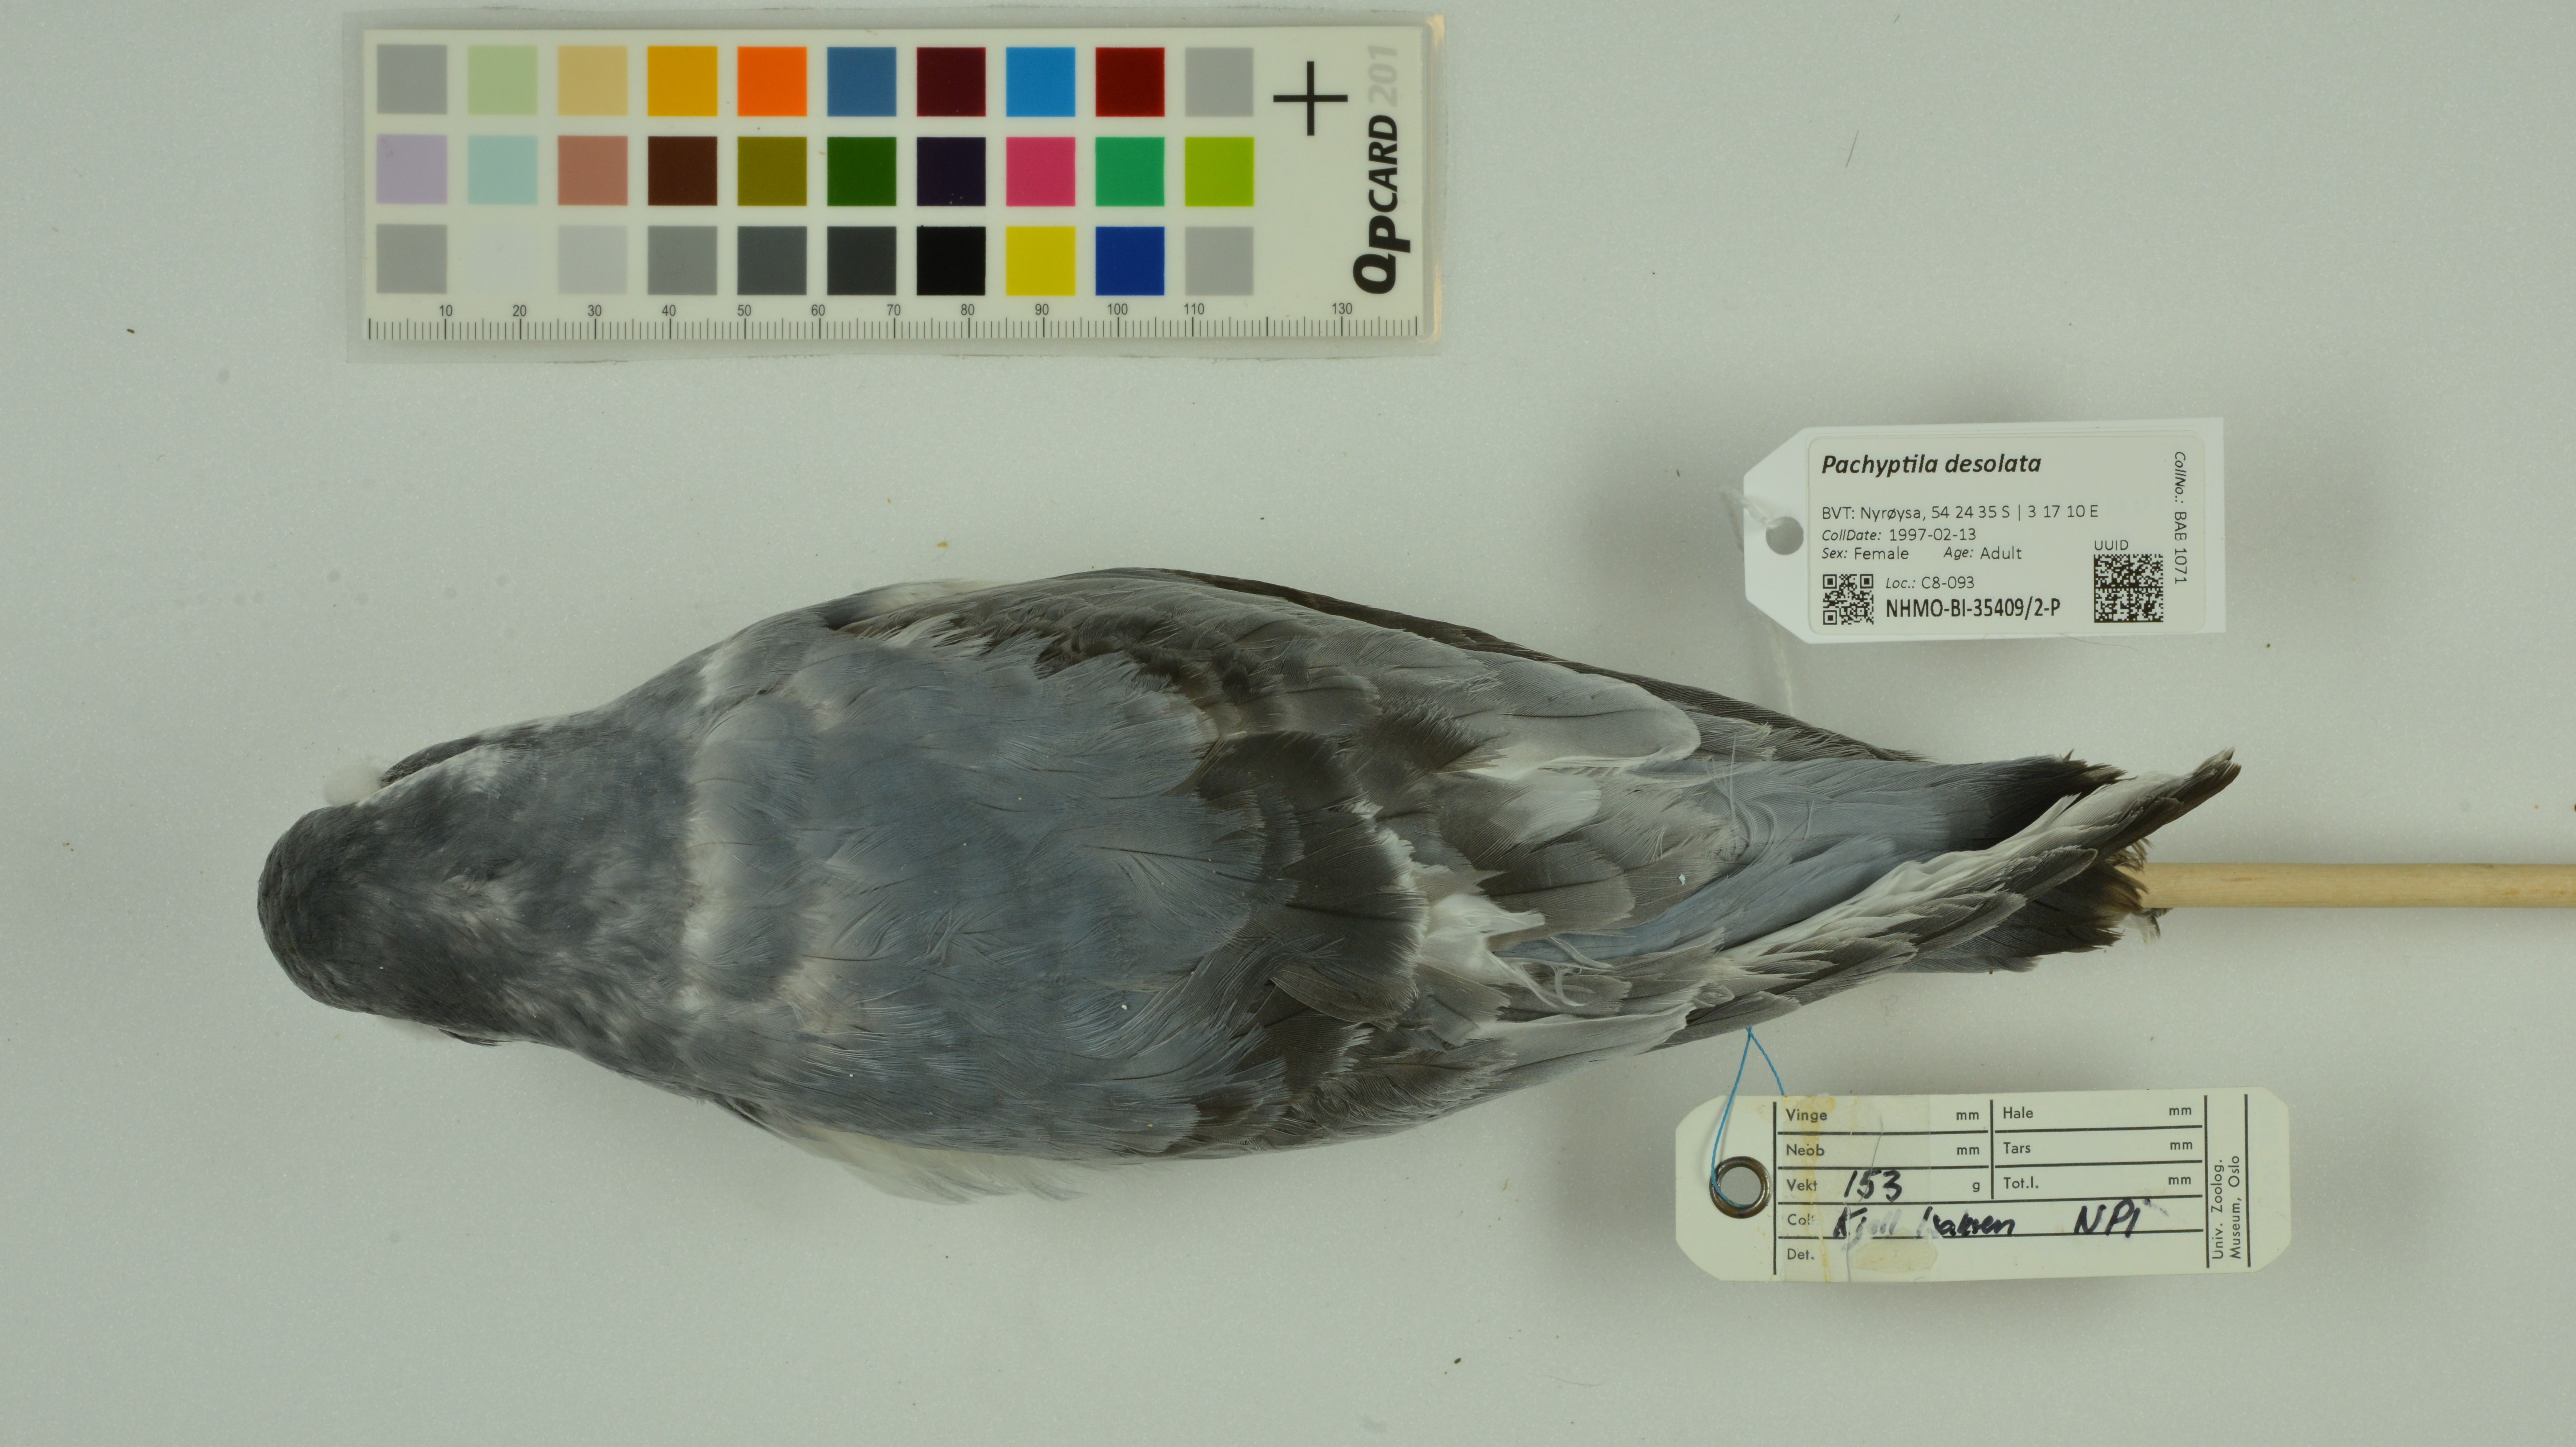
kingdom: Animalia
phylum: Chordata
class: Aves
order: Procellariiformes
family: Procellariidae
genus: Pachyptila
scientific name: Pachyptila desolata
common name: Antarctic prion
